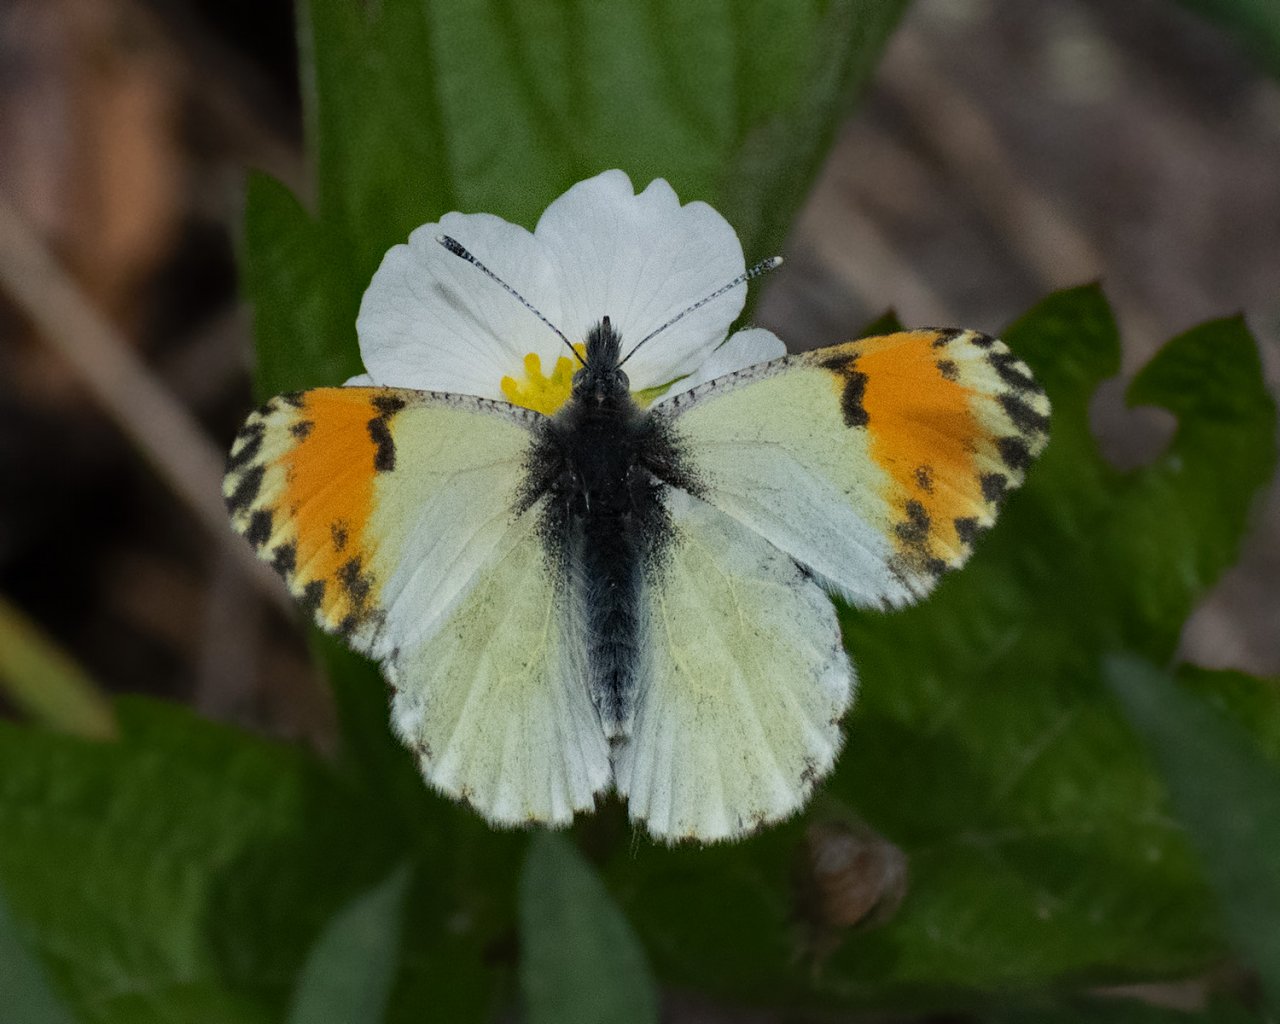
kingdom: Animalia
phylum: Arthropoda
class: Insecta
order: Lepidoptera
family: Pieridae
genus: Anthocharis
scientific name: Anthocharis sara
